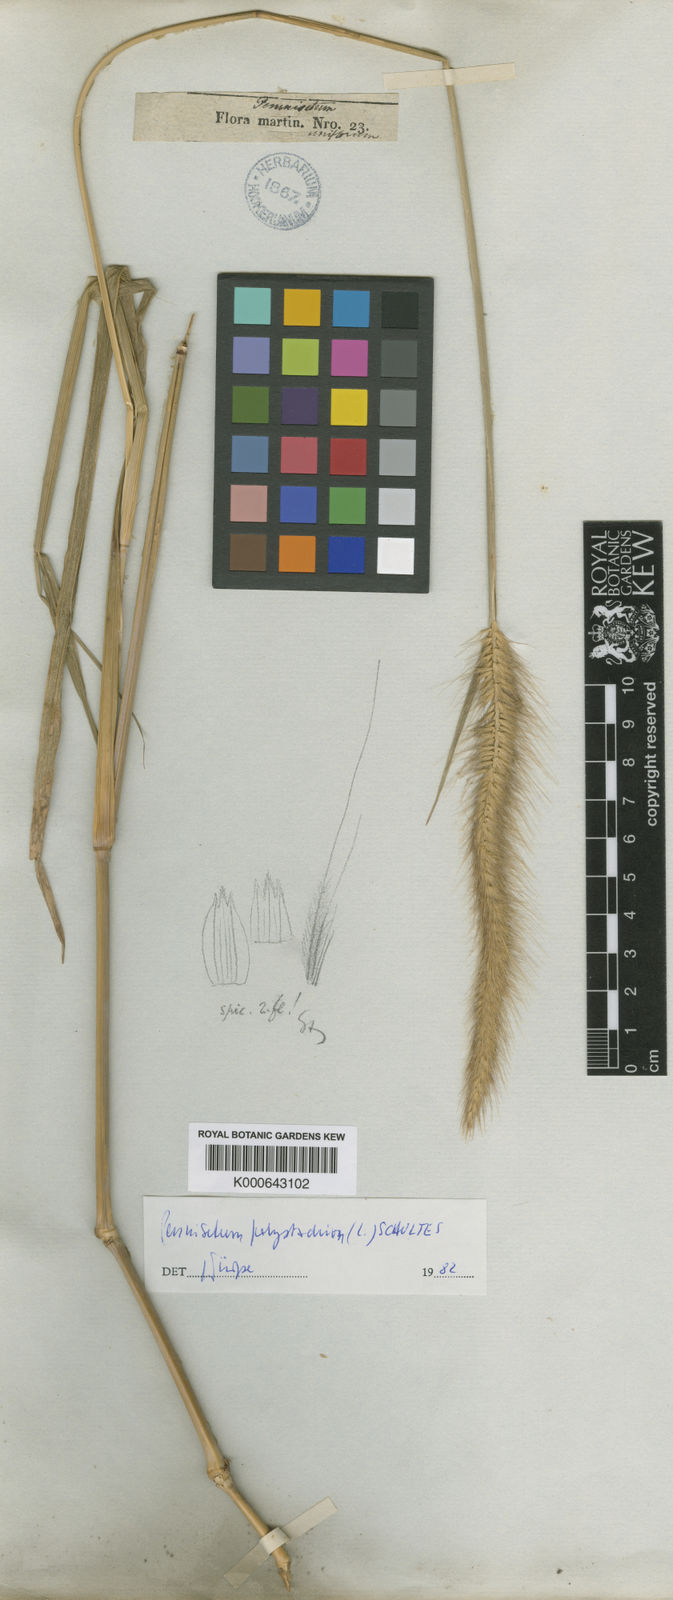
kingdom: Plantae
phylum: Tracheophyta
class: Liliopsida
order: Poales
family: Poaceae
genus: Cenchrus
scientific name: Cenchrus setosus
